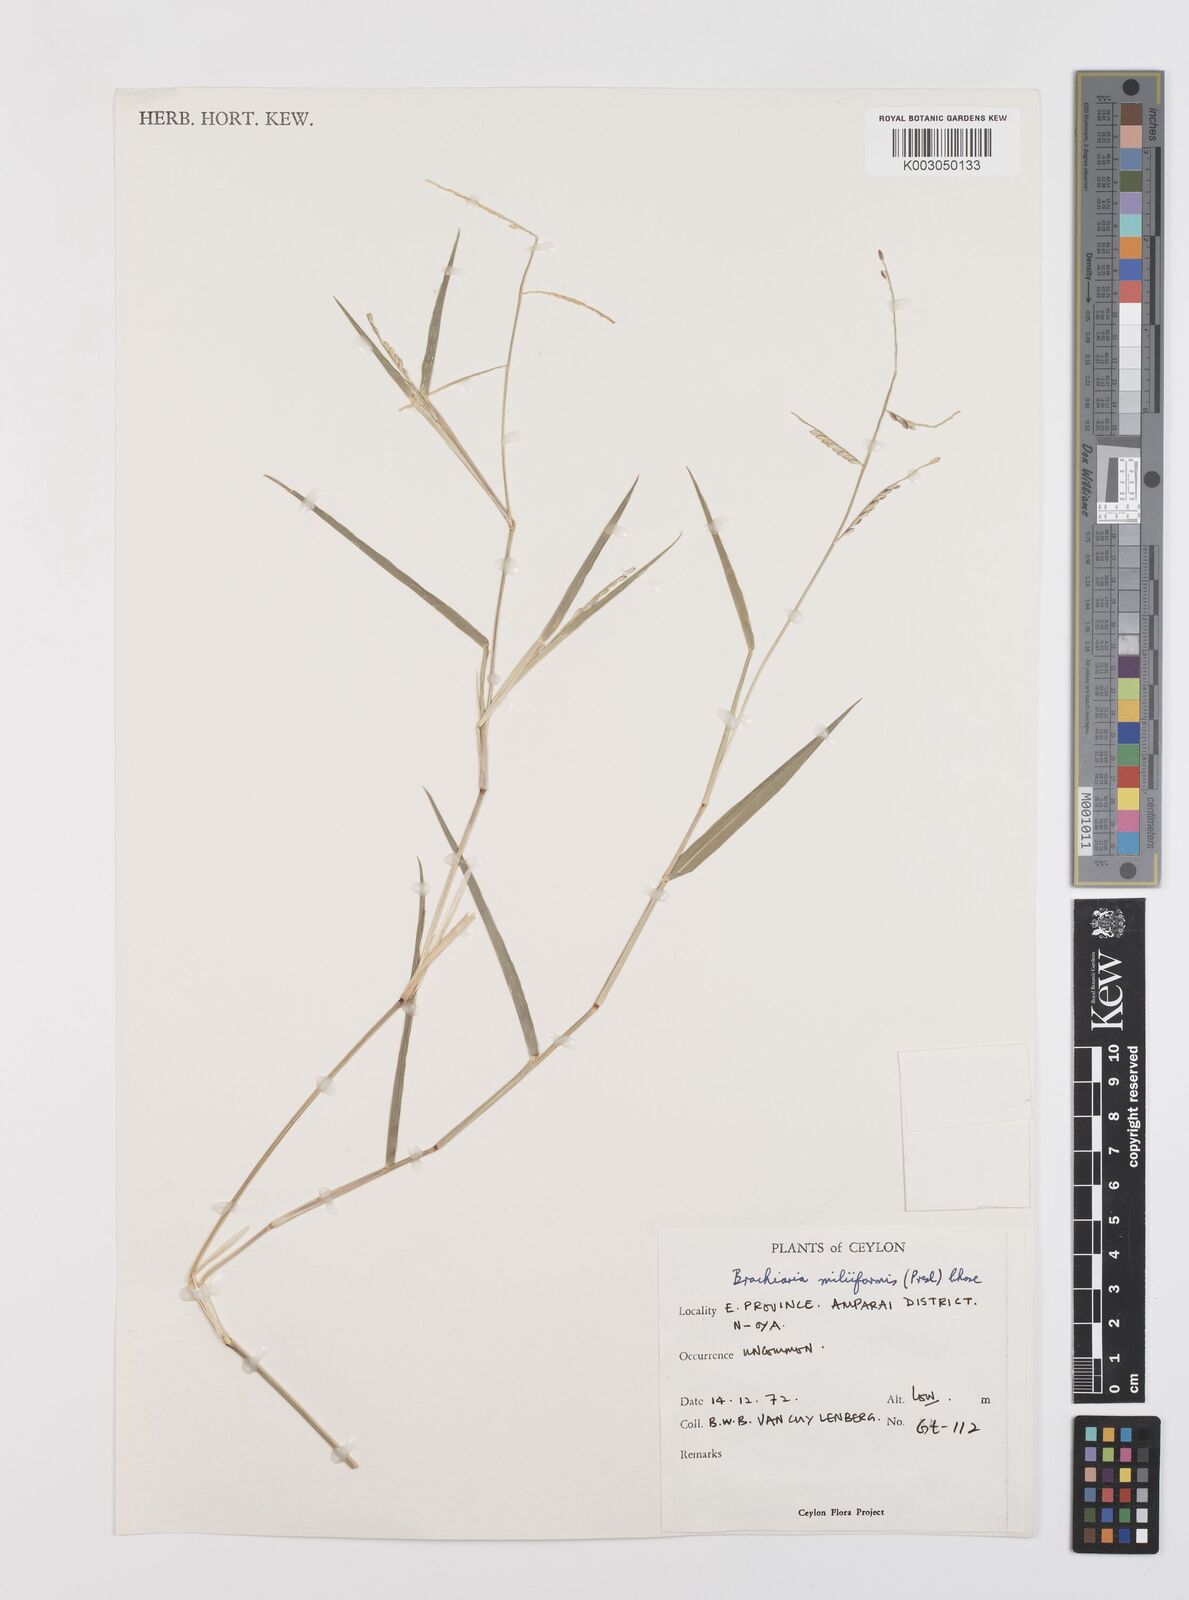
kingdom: Plantae
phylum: Tracheophyta
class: Liliopsida
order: Poales
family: Poaceae
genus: Urochloa
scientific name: Urochloa subquadripara
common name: Armgrass millet
